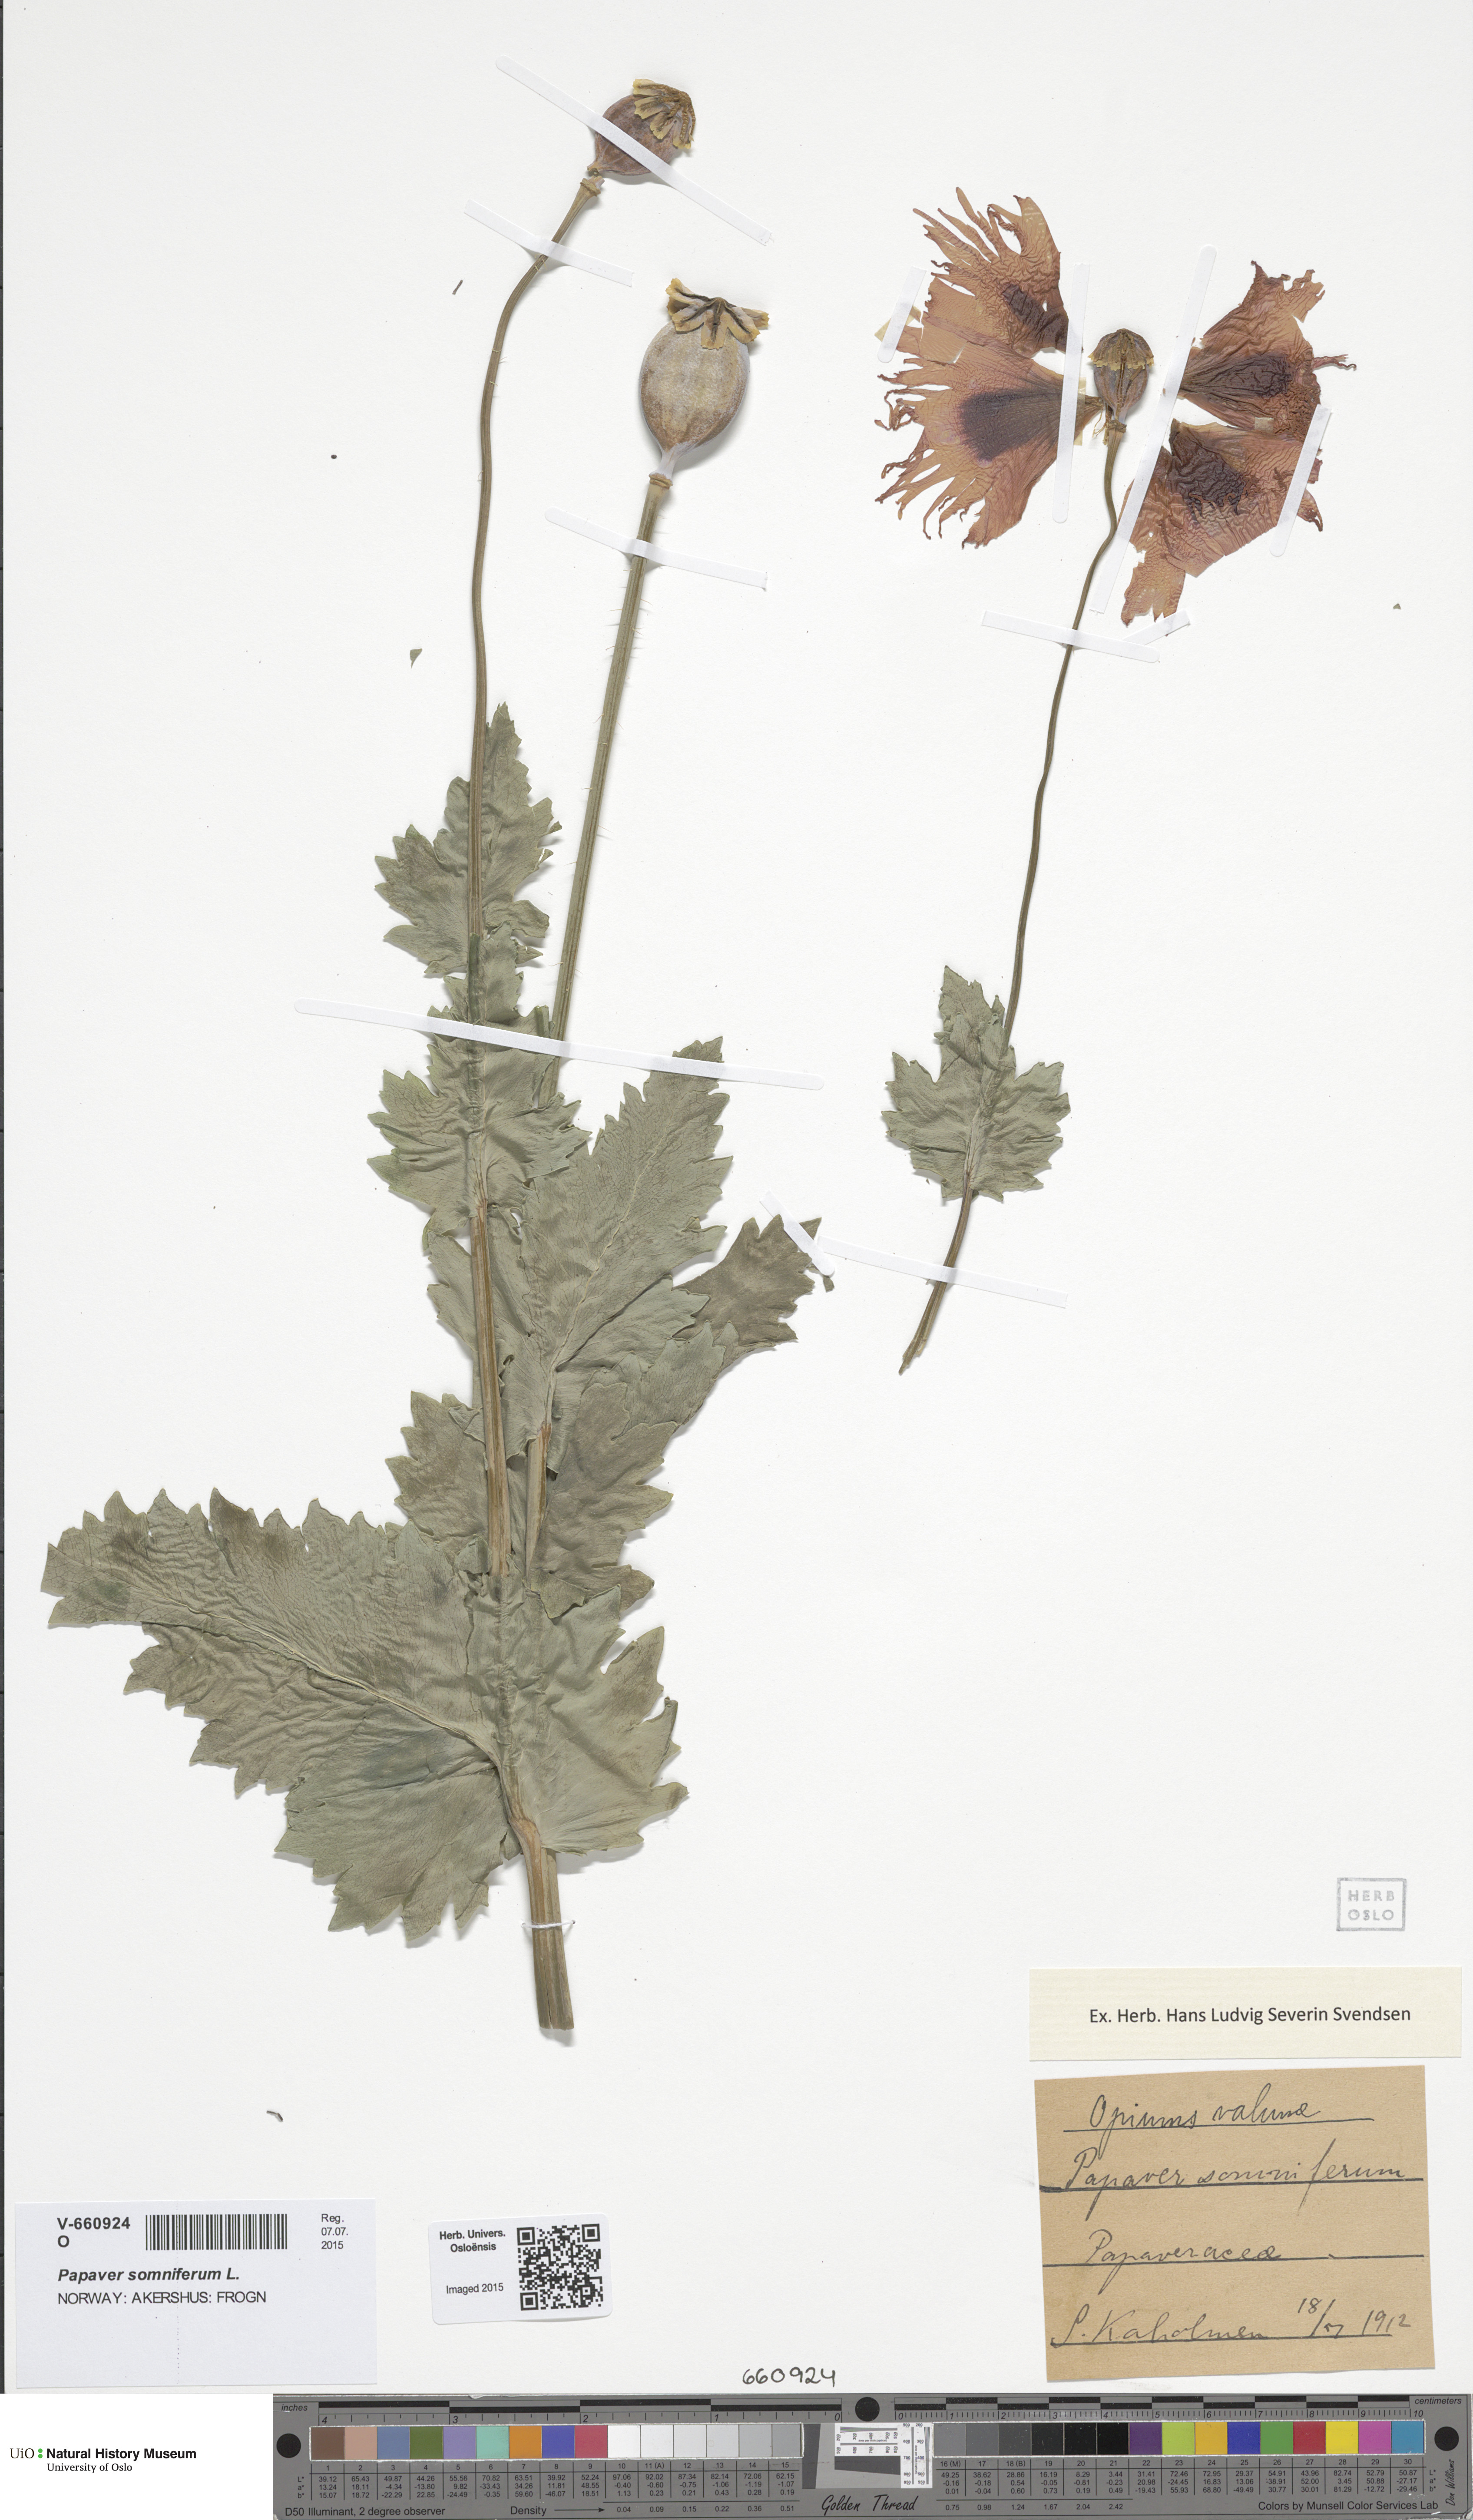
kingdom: Plantae
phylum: Tracheophyta
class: Magnoliopsida
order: Ranunculales
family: Papaveraceae
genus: Papaver
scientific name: Papaver somniferum
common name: Opium poppy
